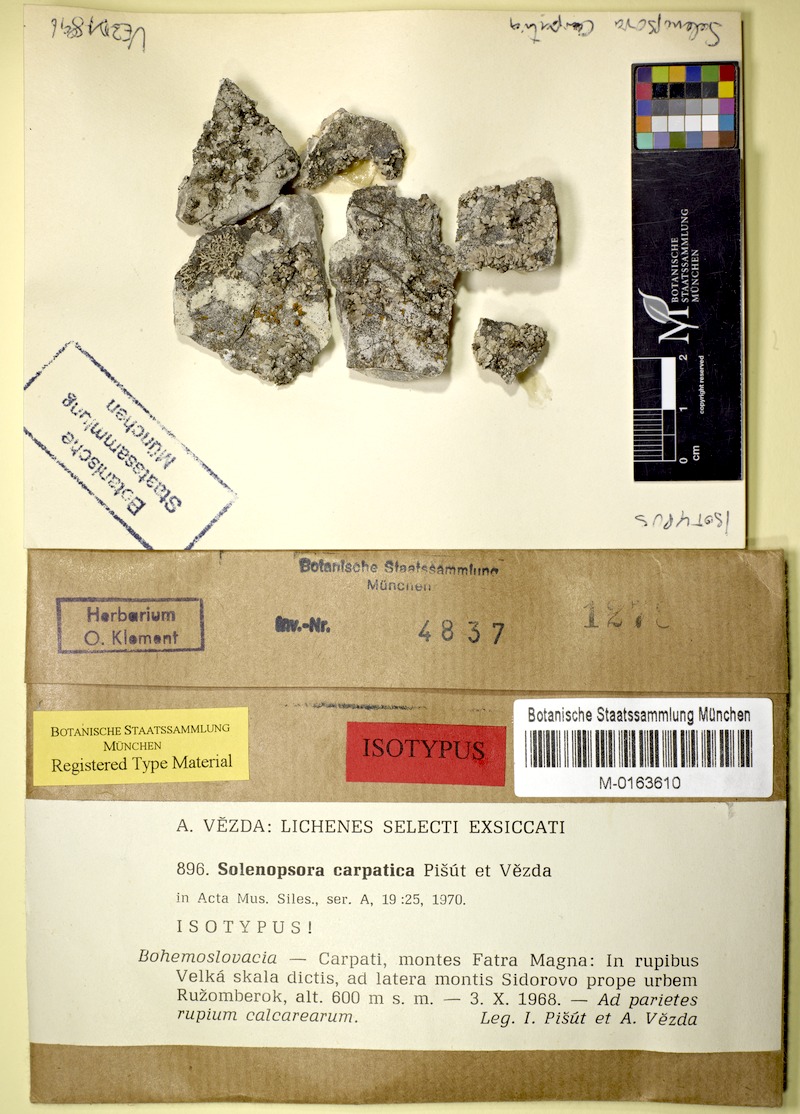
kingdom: Fungi
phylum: Ascomycota
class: Lecanoromycetes
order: Lecanorales
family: Catillariaceae
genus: Solenopsora
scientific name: Solenopsora carpatica
